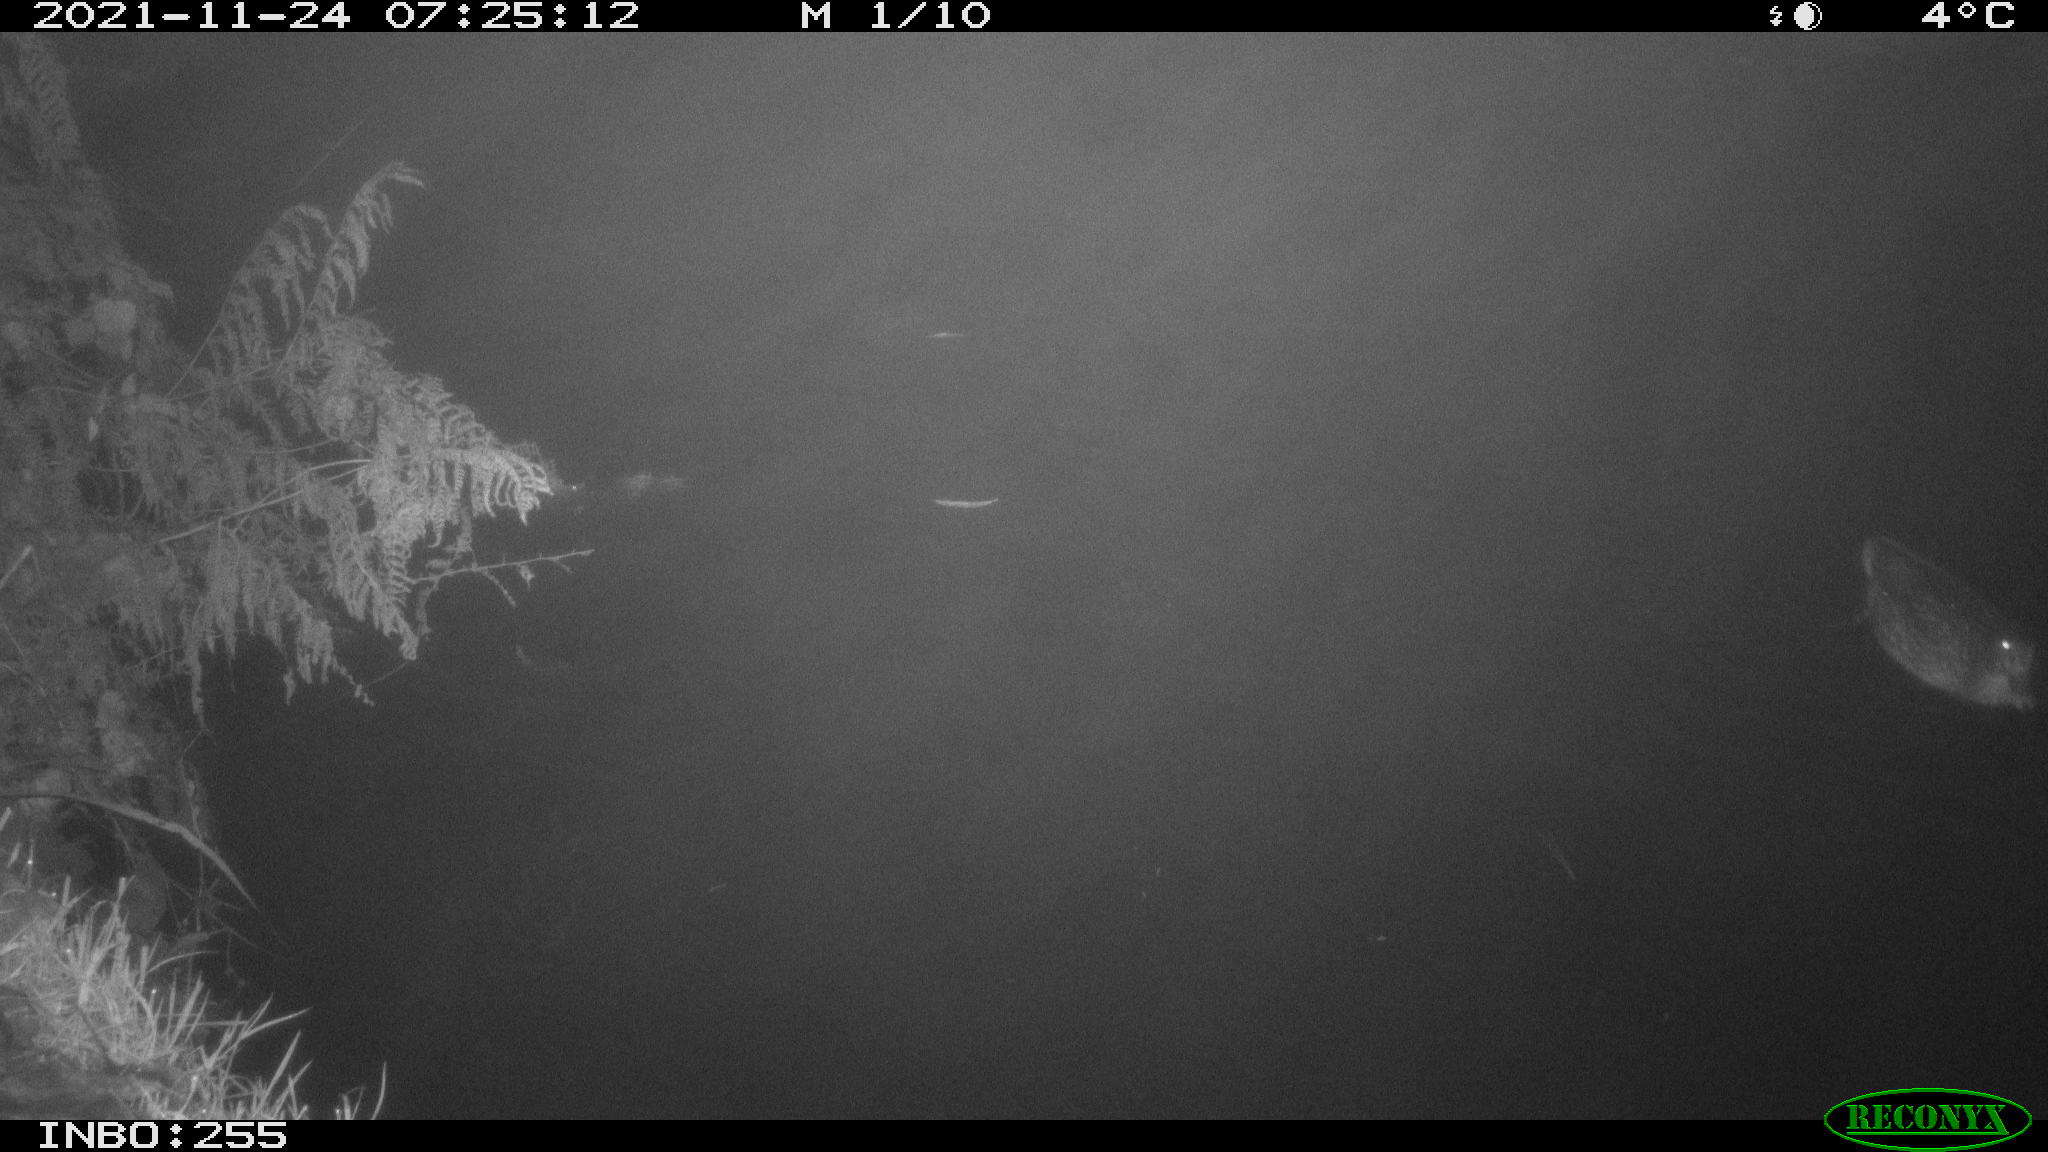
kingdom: Animalia
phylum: Chordata
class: Aves
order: Anseriformes
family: Anatidae
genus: Anas
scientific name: Anas platyrhynchos
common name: Mallard
